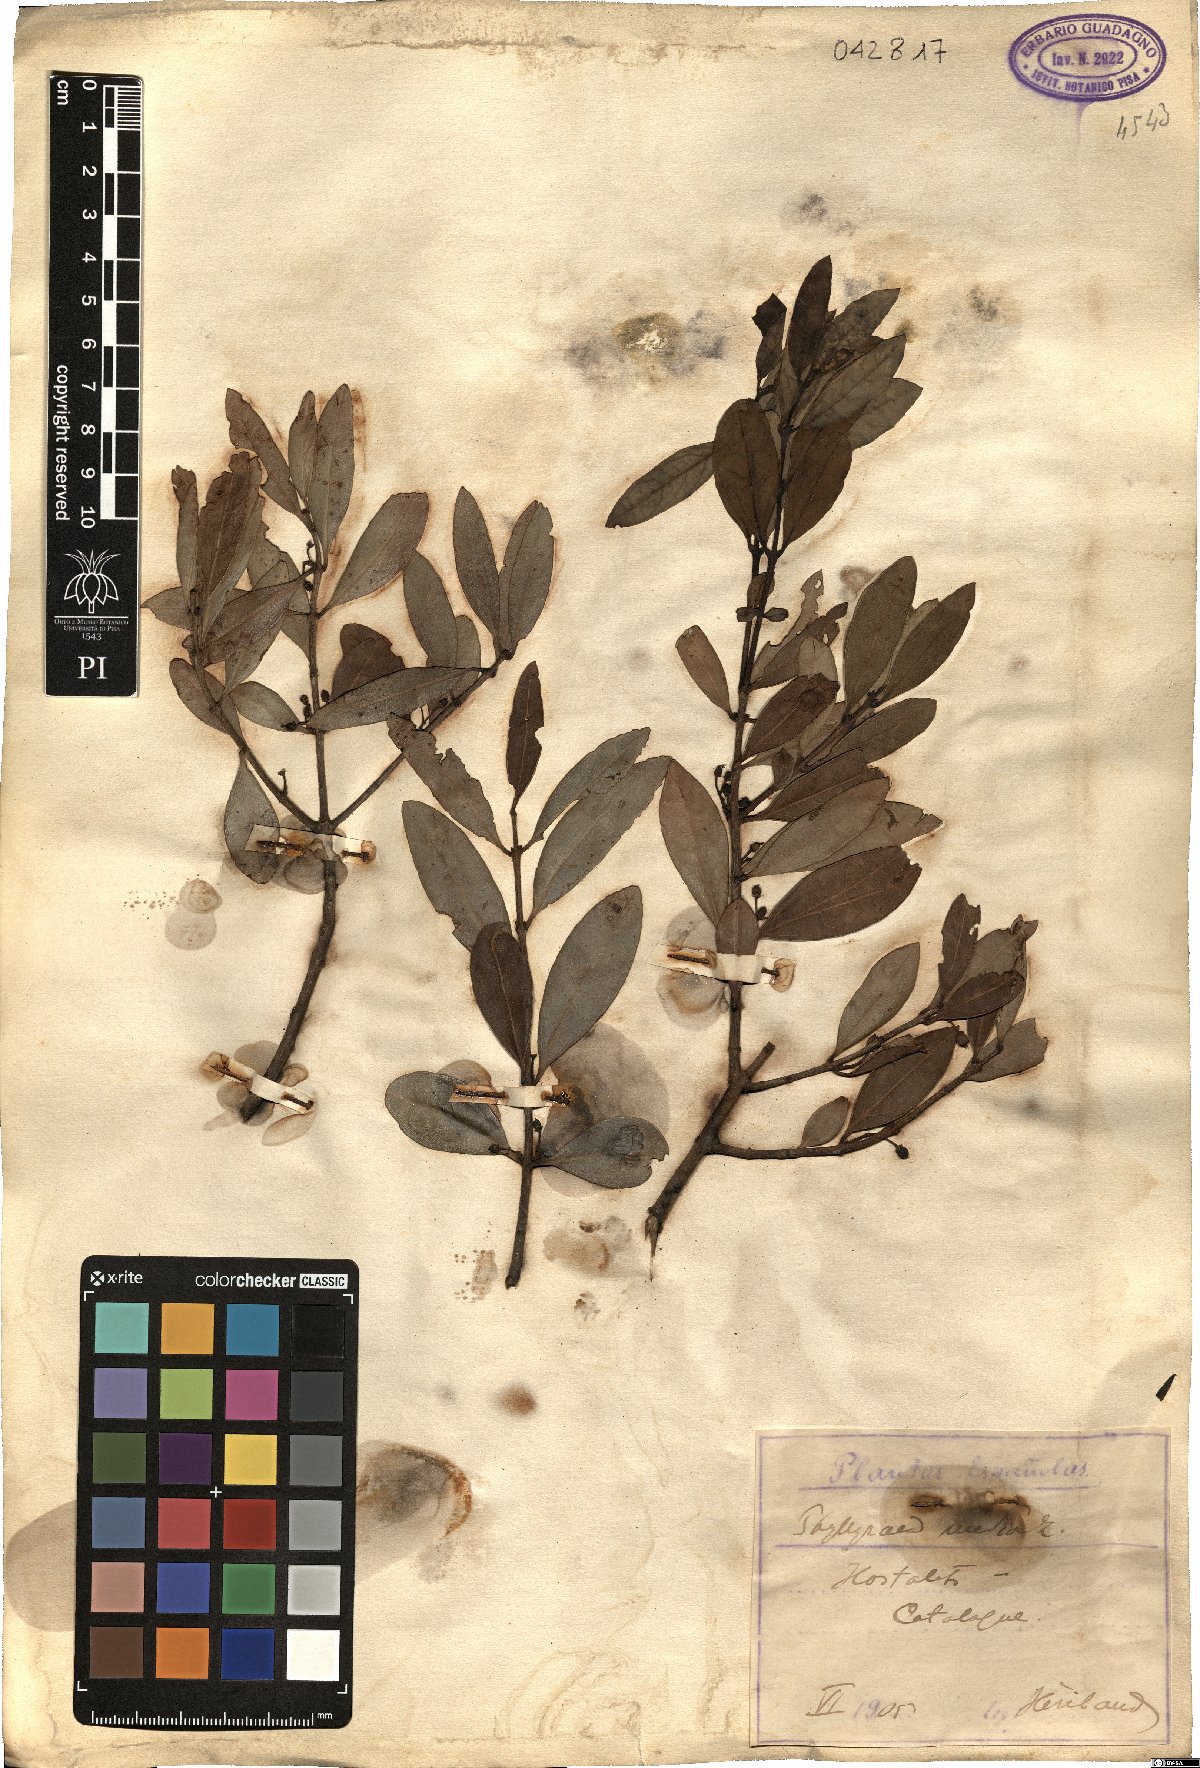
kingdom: Plantae
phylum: Tracheophyta
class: Magnoliopsida
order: Lamiales
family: Oleaceae
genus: Phillyrea
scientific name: Phillyrea latifolia
